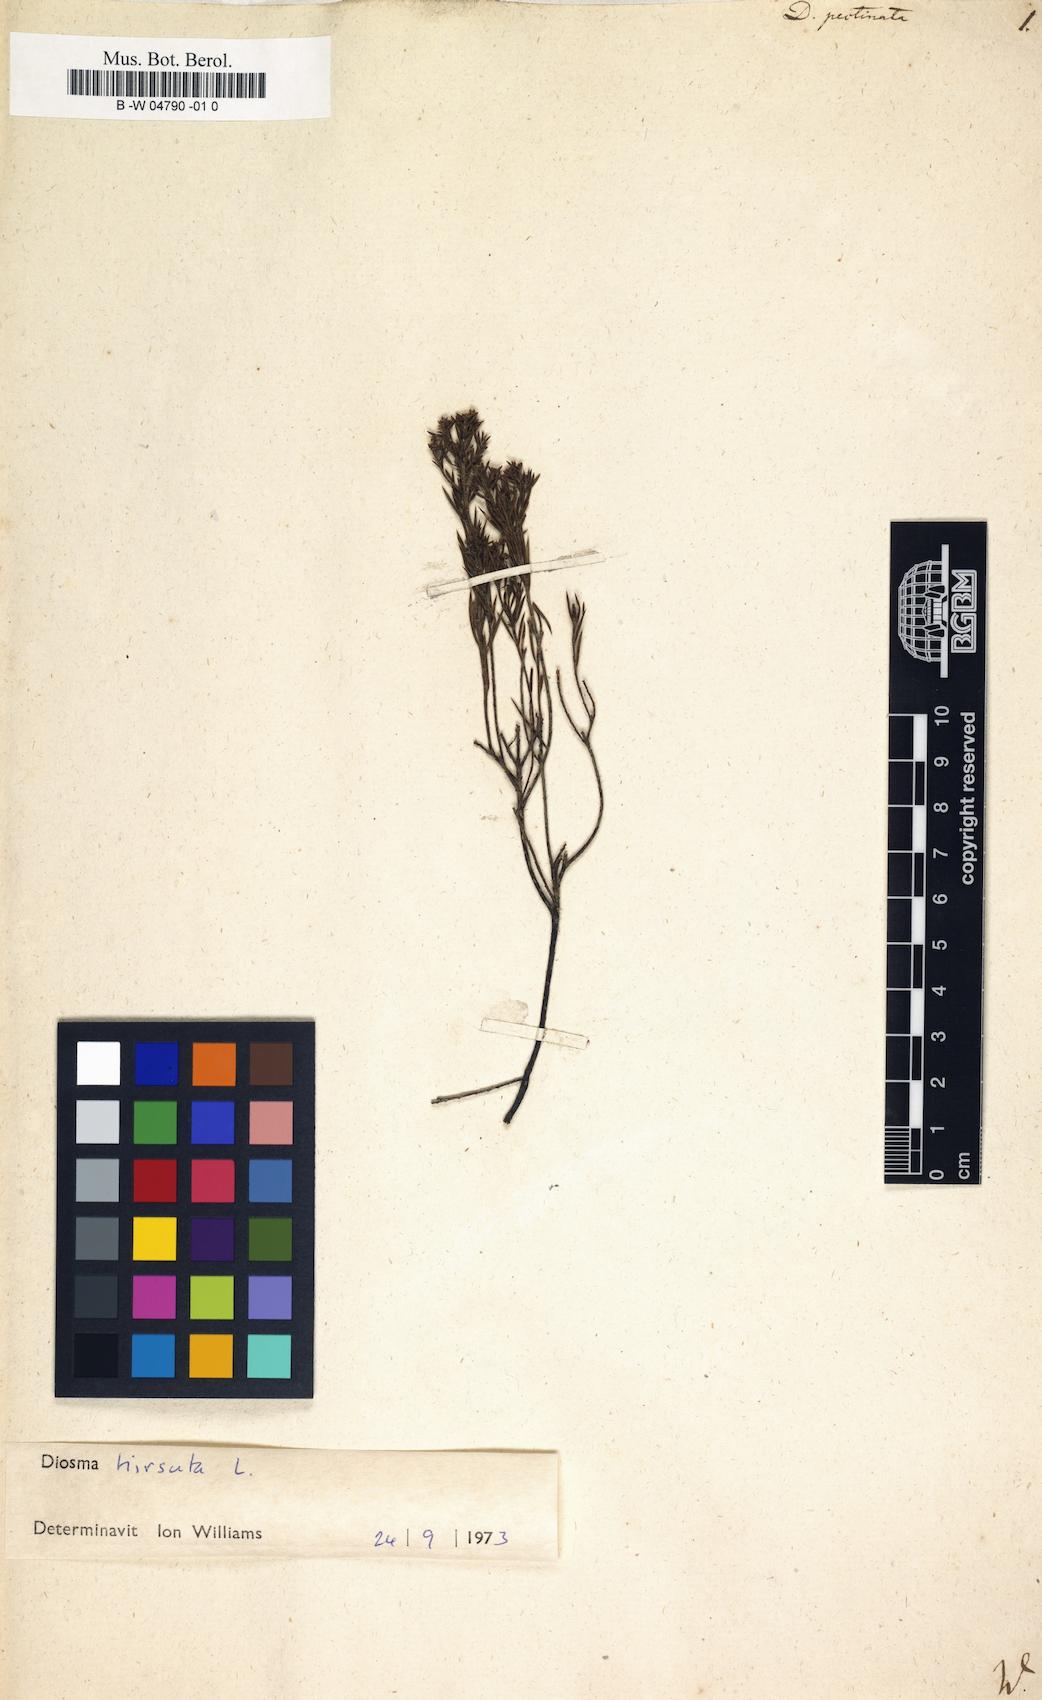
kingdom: Plantae
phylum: Tracheophyta
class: Magnoliopsida
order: Sapindales
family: Rutaceae
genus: Diosma
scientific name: Diosma hirsuta
